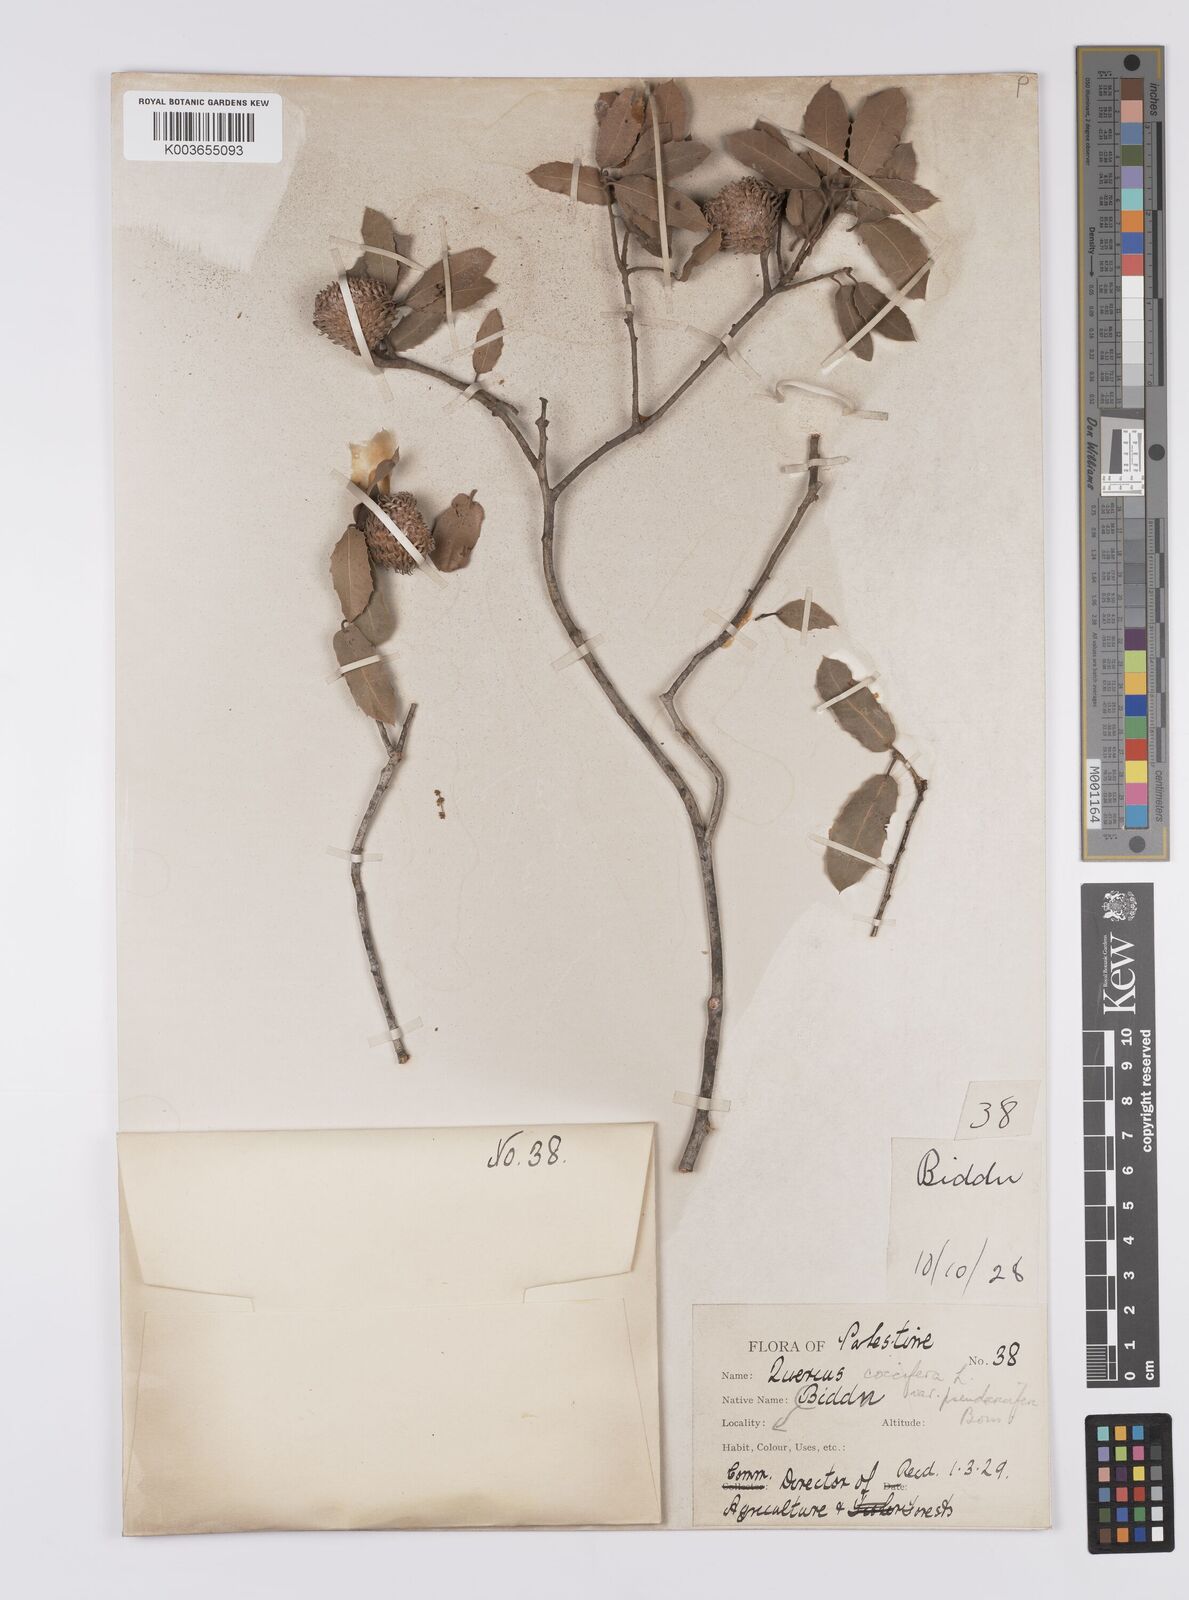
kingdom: Plantae
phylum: Tracheophyta
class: Magnoliopsida
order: Fagales
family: Fagaceae
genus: Quercus
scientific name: Quercus coccifera
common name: Kermes oak
